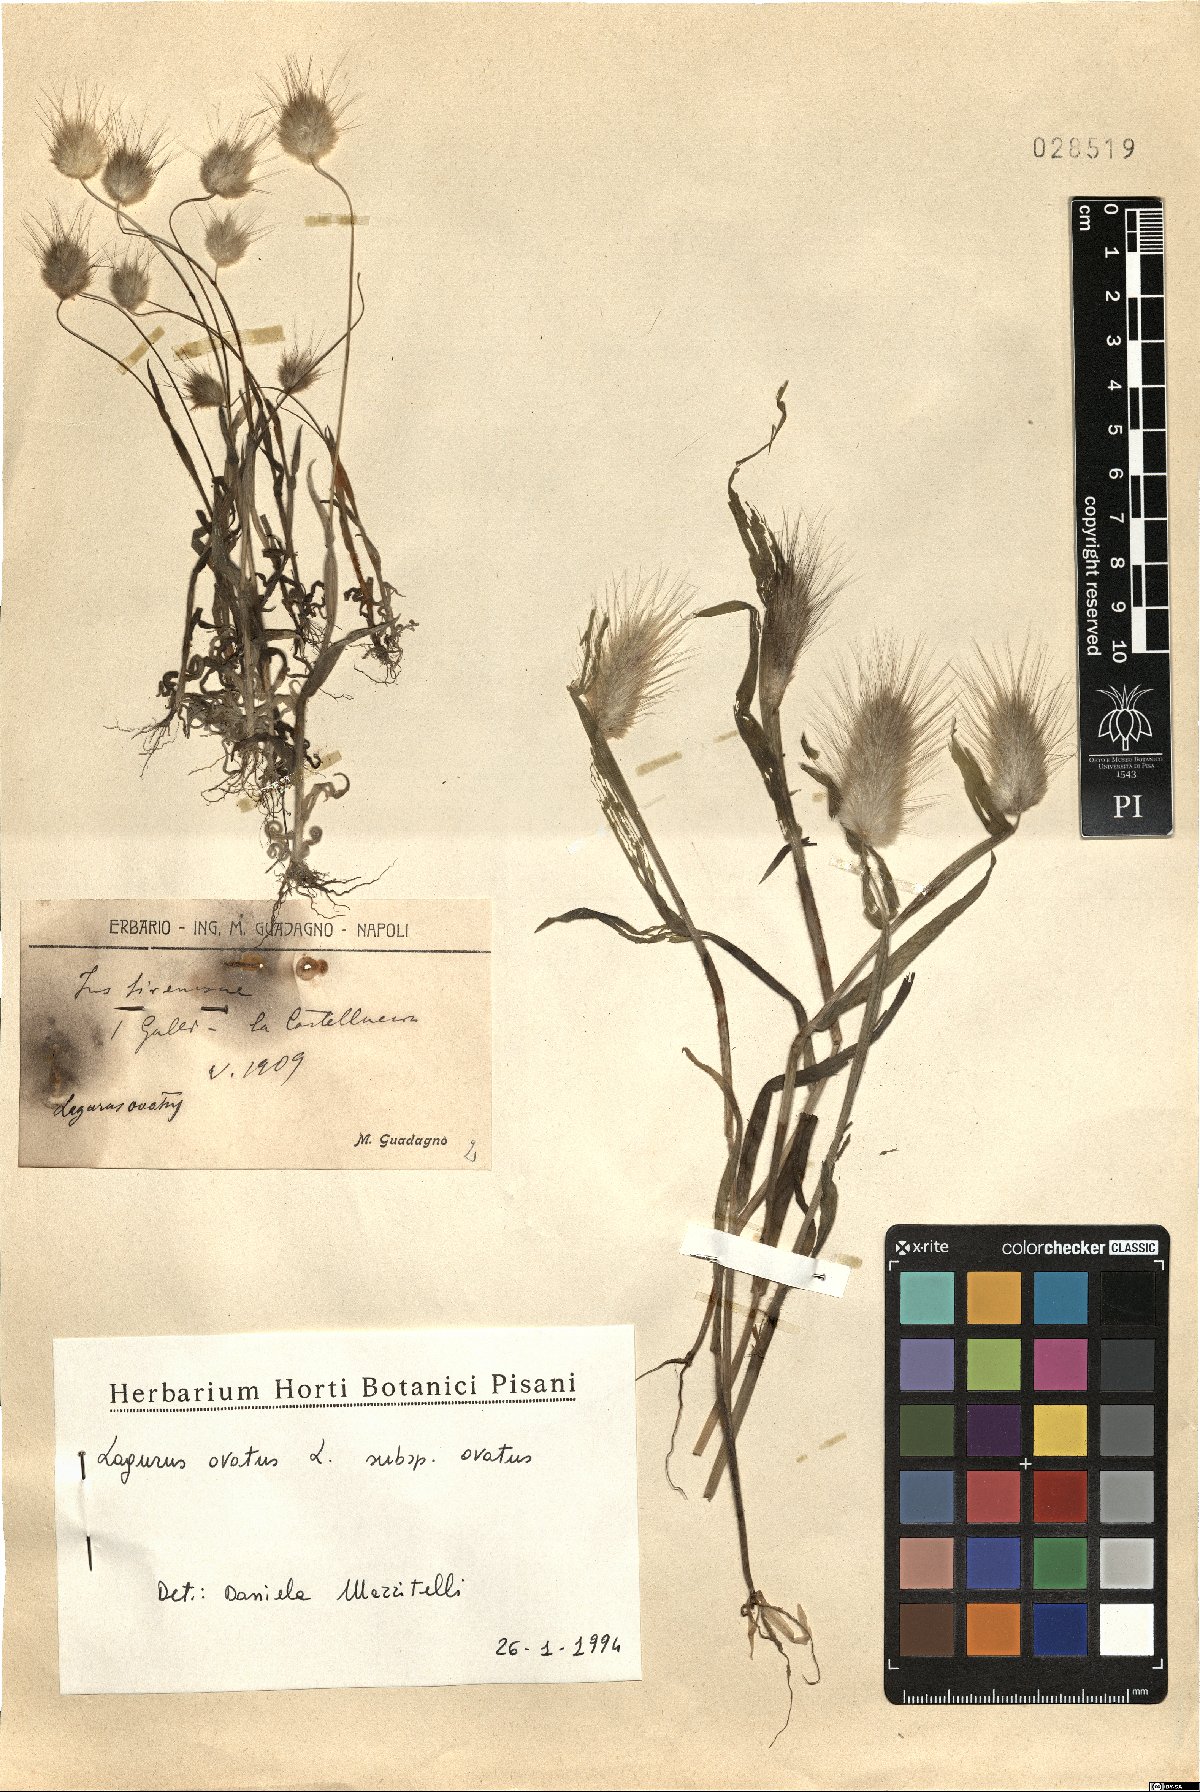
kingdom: Plantae
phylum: Tracheophyta
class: Liliopsida
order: Poales
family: Poaceae
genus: Lagurus
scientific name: Lagurus ovatus
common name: Hare's-tail
